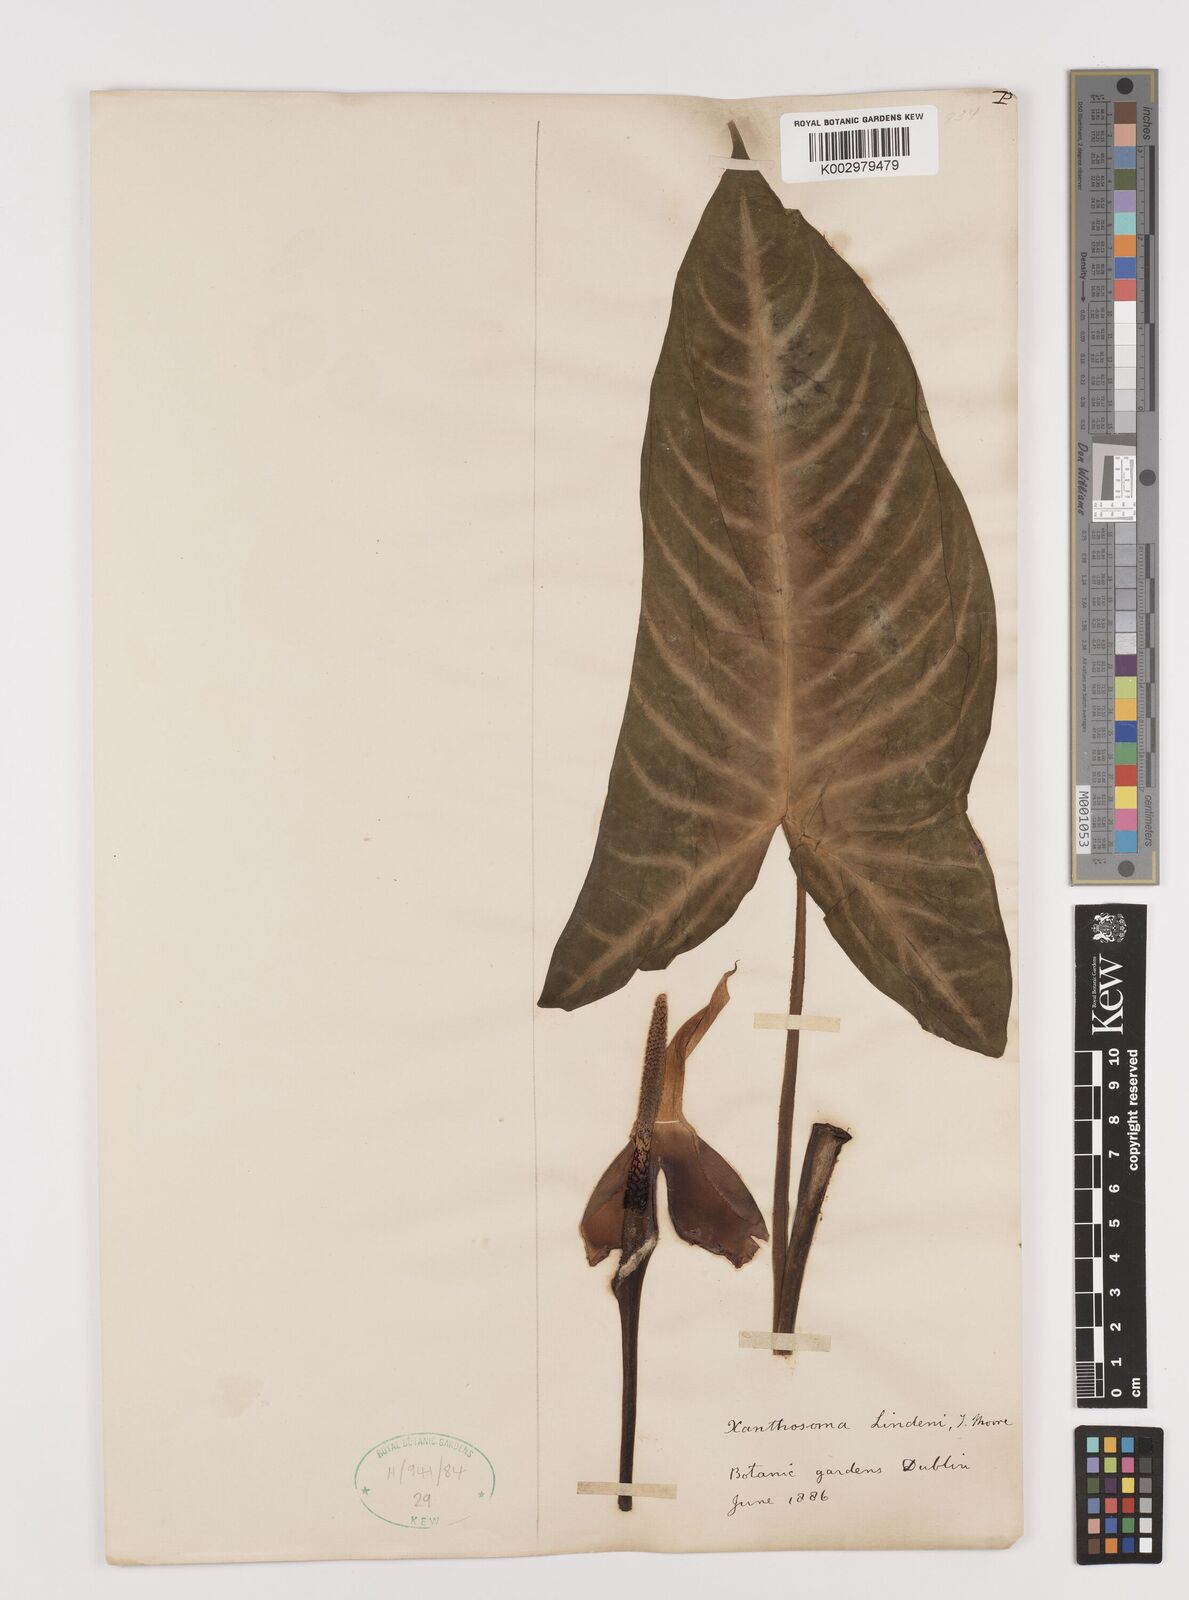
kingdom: Plantae
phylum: Tracheophyta
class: Liliopsida
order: Alismatales
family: Araceae
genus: Caladium
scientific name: Caladium lindenii
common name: Indian-kale
